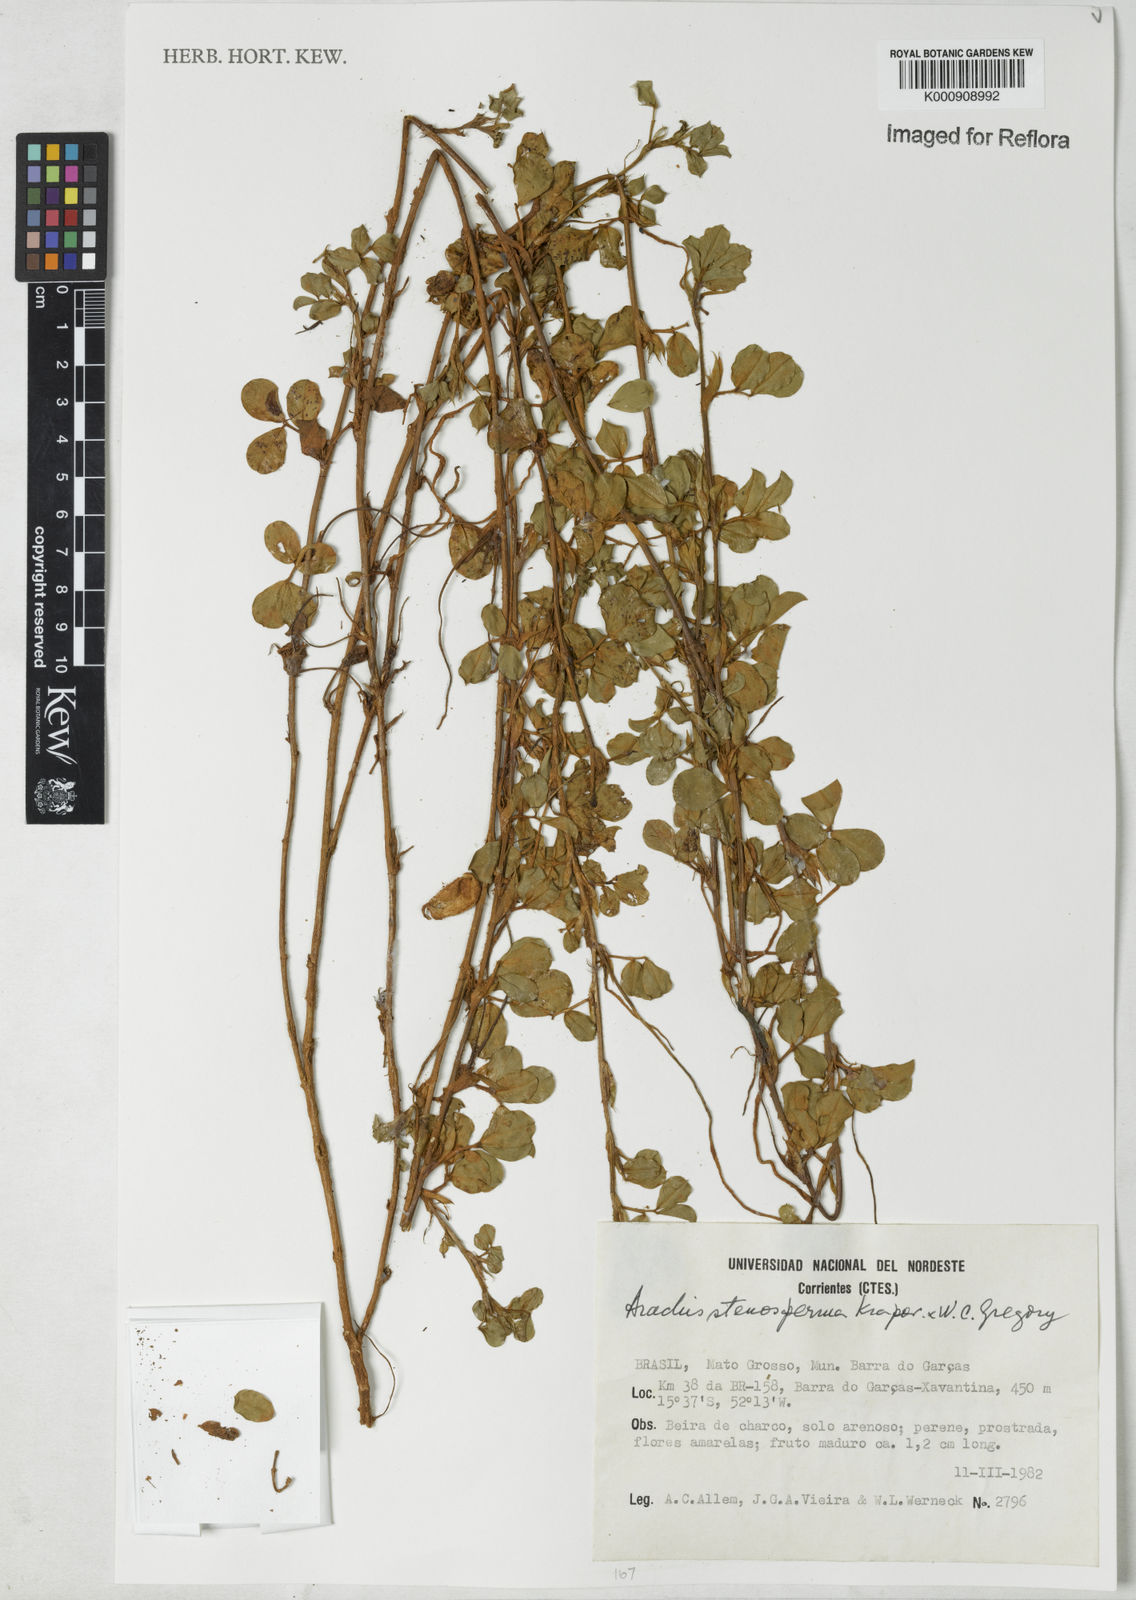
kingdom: Plantae
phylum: Tracheophyta
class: Magnoliopsida
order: Fabales
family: Fabaceae
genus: Arachis
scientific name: Arachis stenosperma
